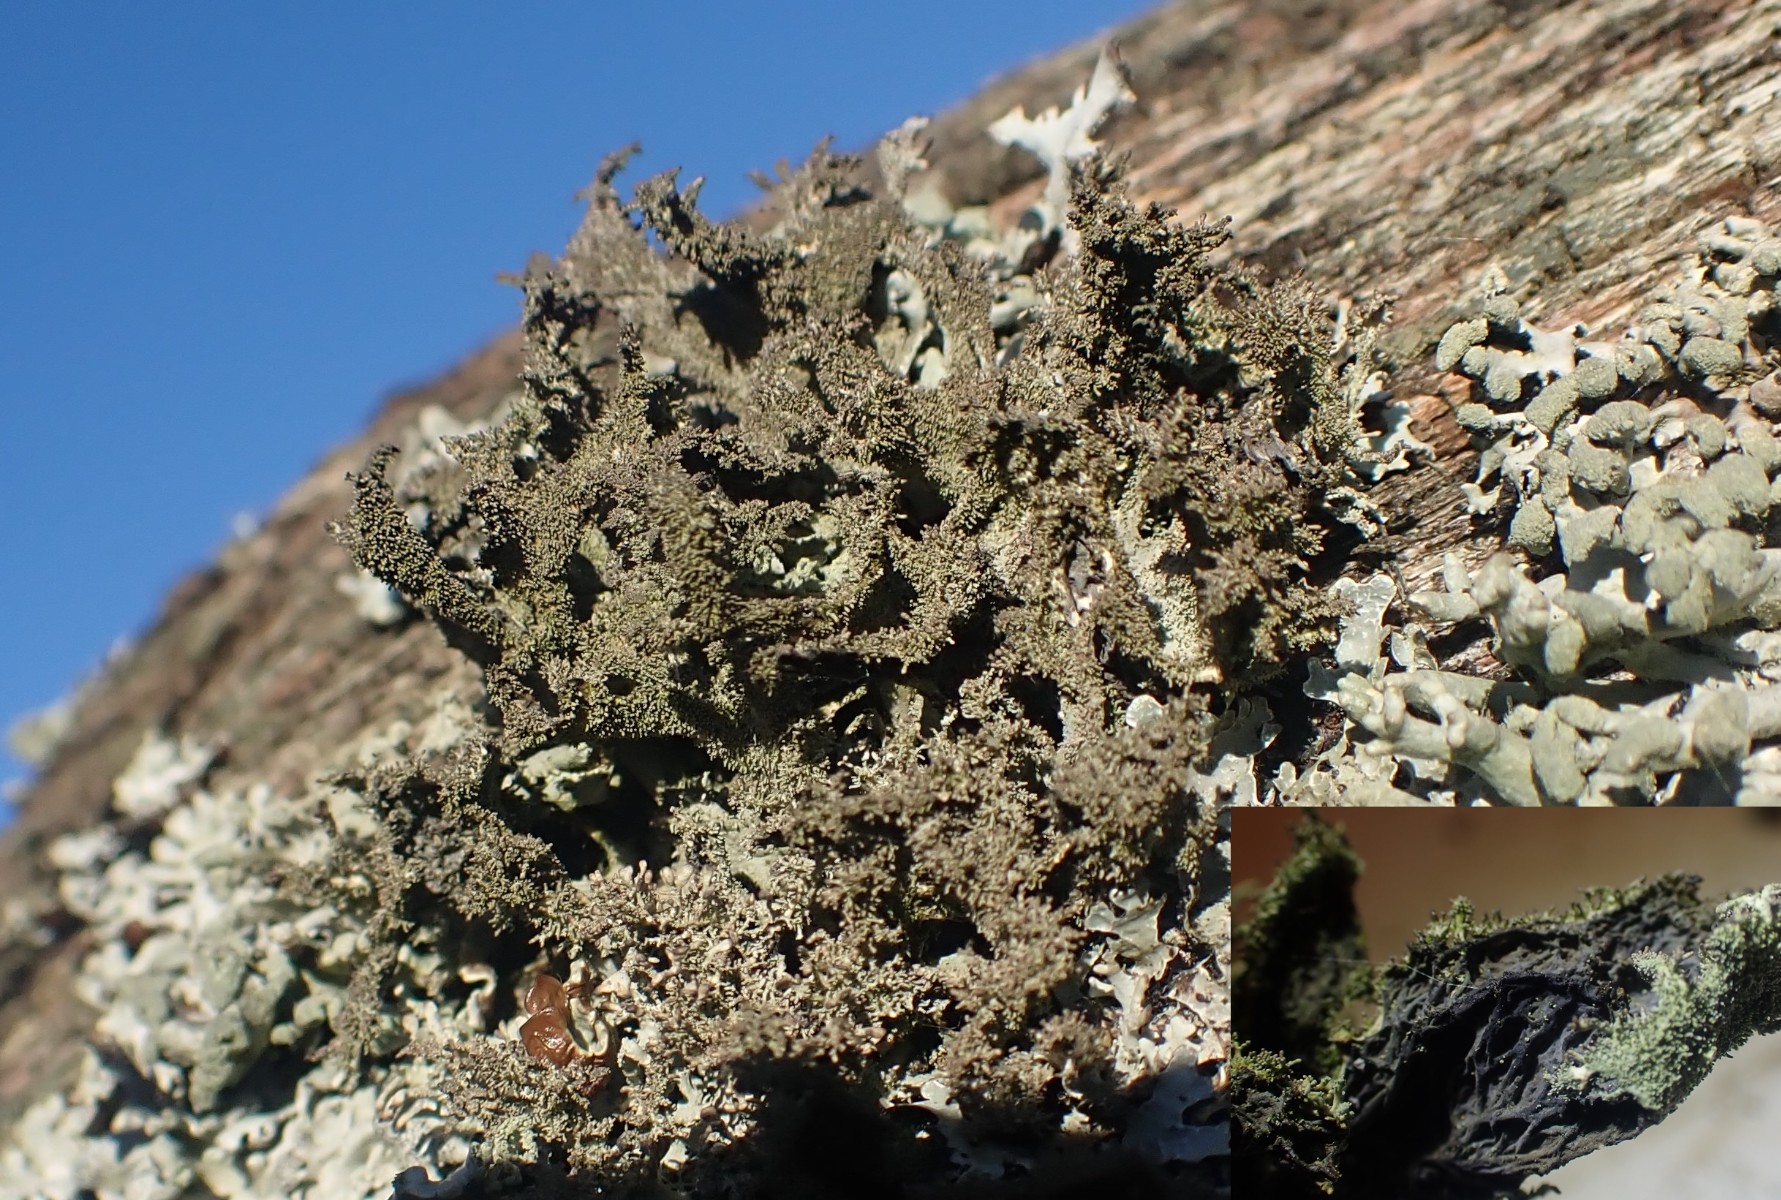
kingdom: Fungi
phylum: Ascomycota
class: Lecanoromycetes
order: Lecanorales
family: Parmeliaceae
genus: Pseudevernia
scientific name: Pseudevernia furfuracea
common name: grå fyrrelav
